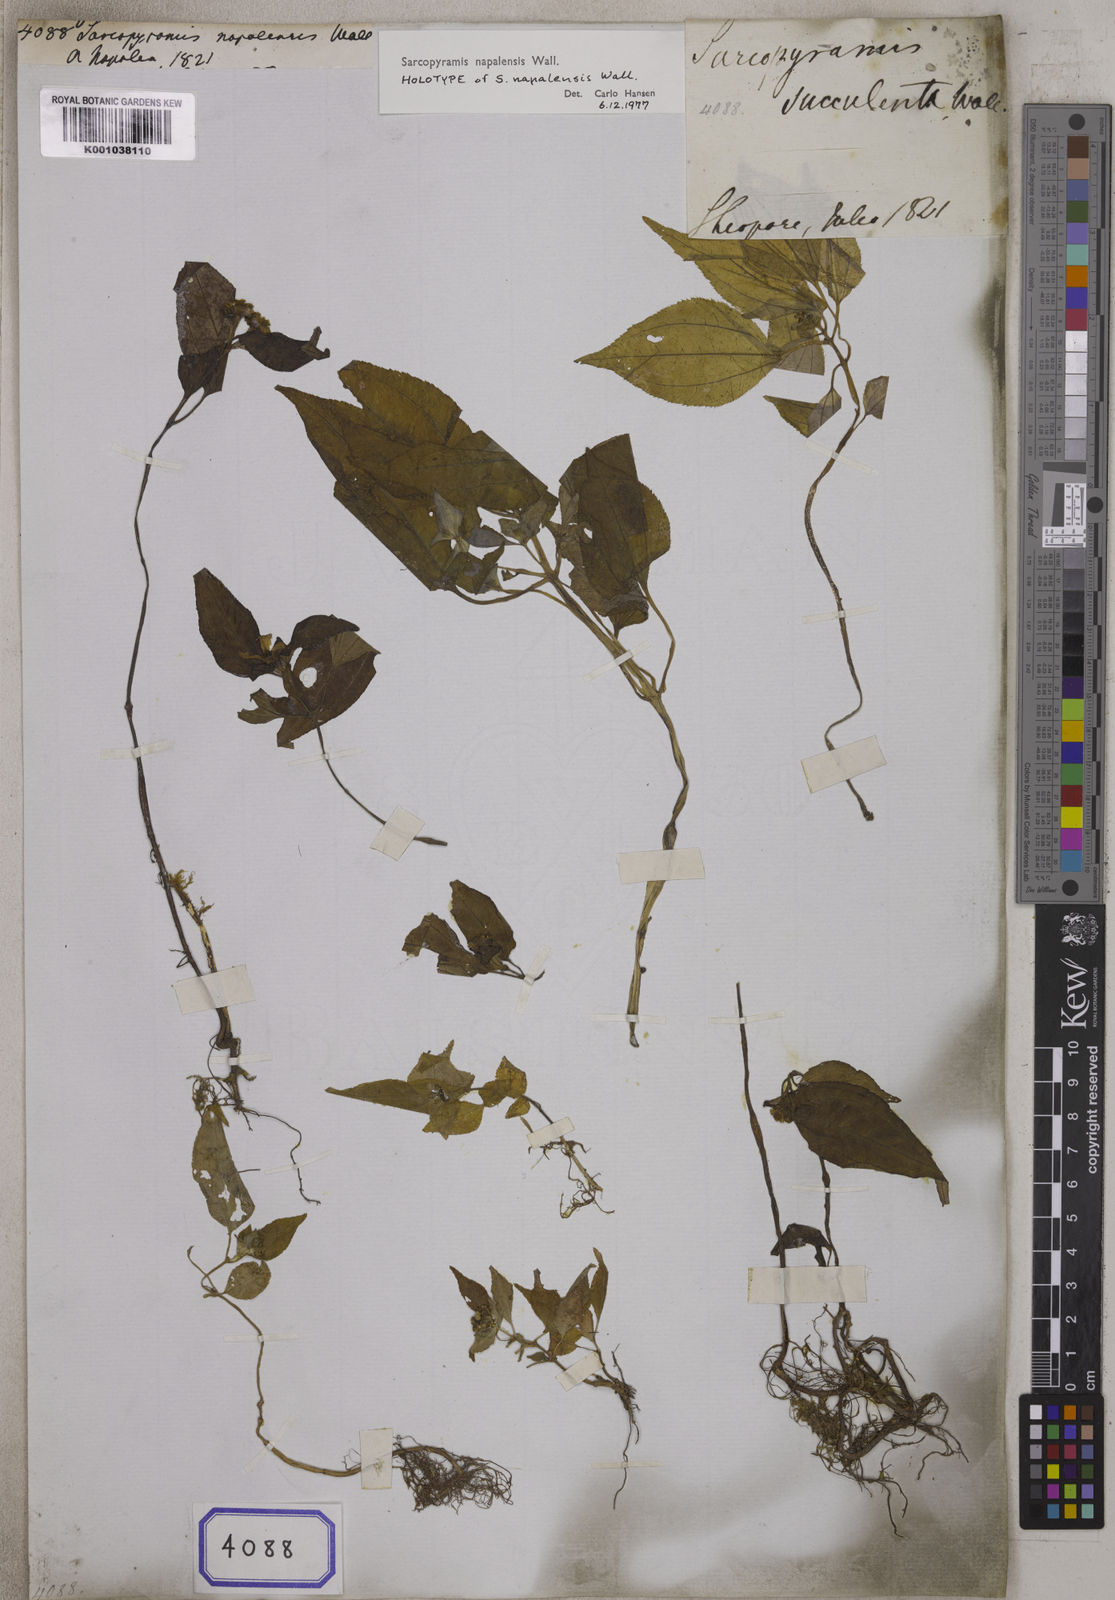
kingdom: Plantae
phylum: Tracheophyta
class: Magnoliopsida
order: Myrtales
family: Melastomataceae
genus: Sarcopyramis
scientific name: Sarcopyramis napalensis
